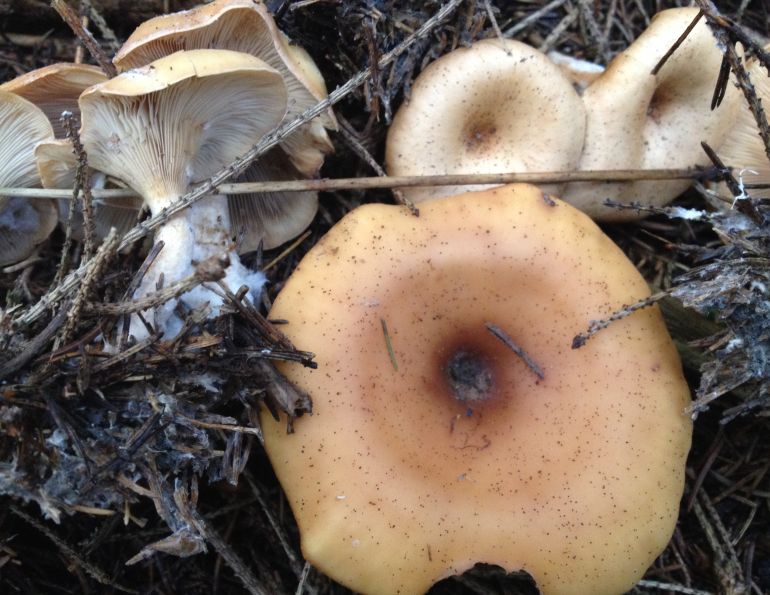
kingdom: Fungi
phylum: Basidiomycota
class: Agaricomycetes
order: Agaricales
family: Tricholomataceae
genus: Paralepista
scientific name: Paralepista flaccida
